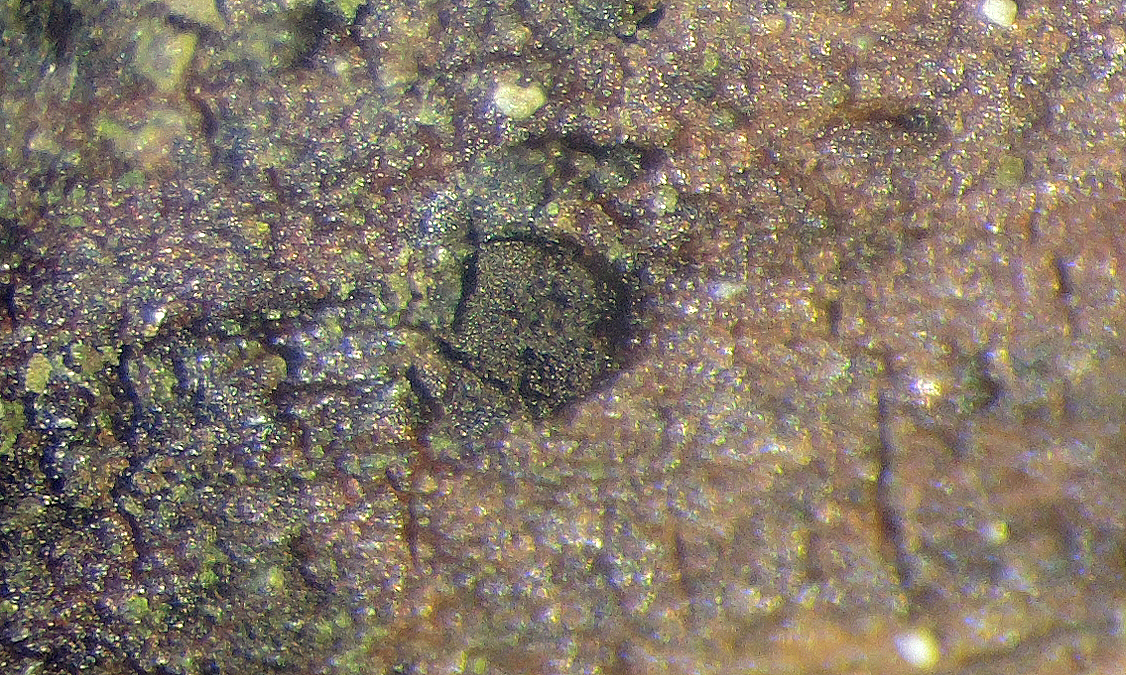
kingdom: Fungi
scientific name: Fungi
